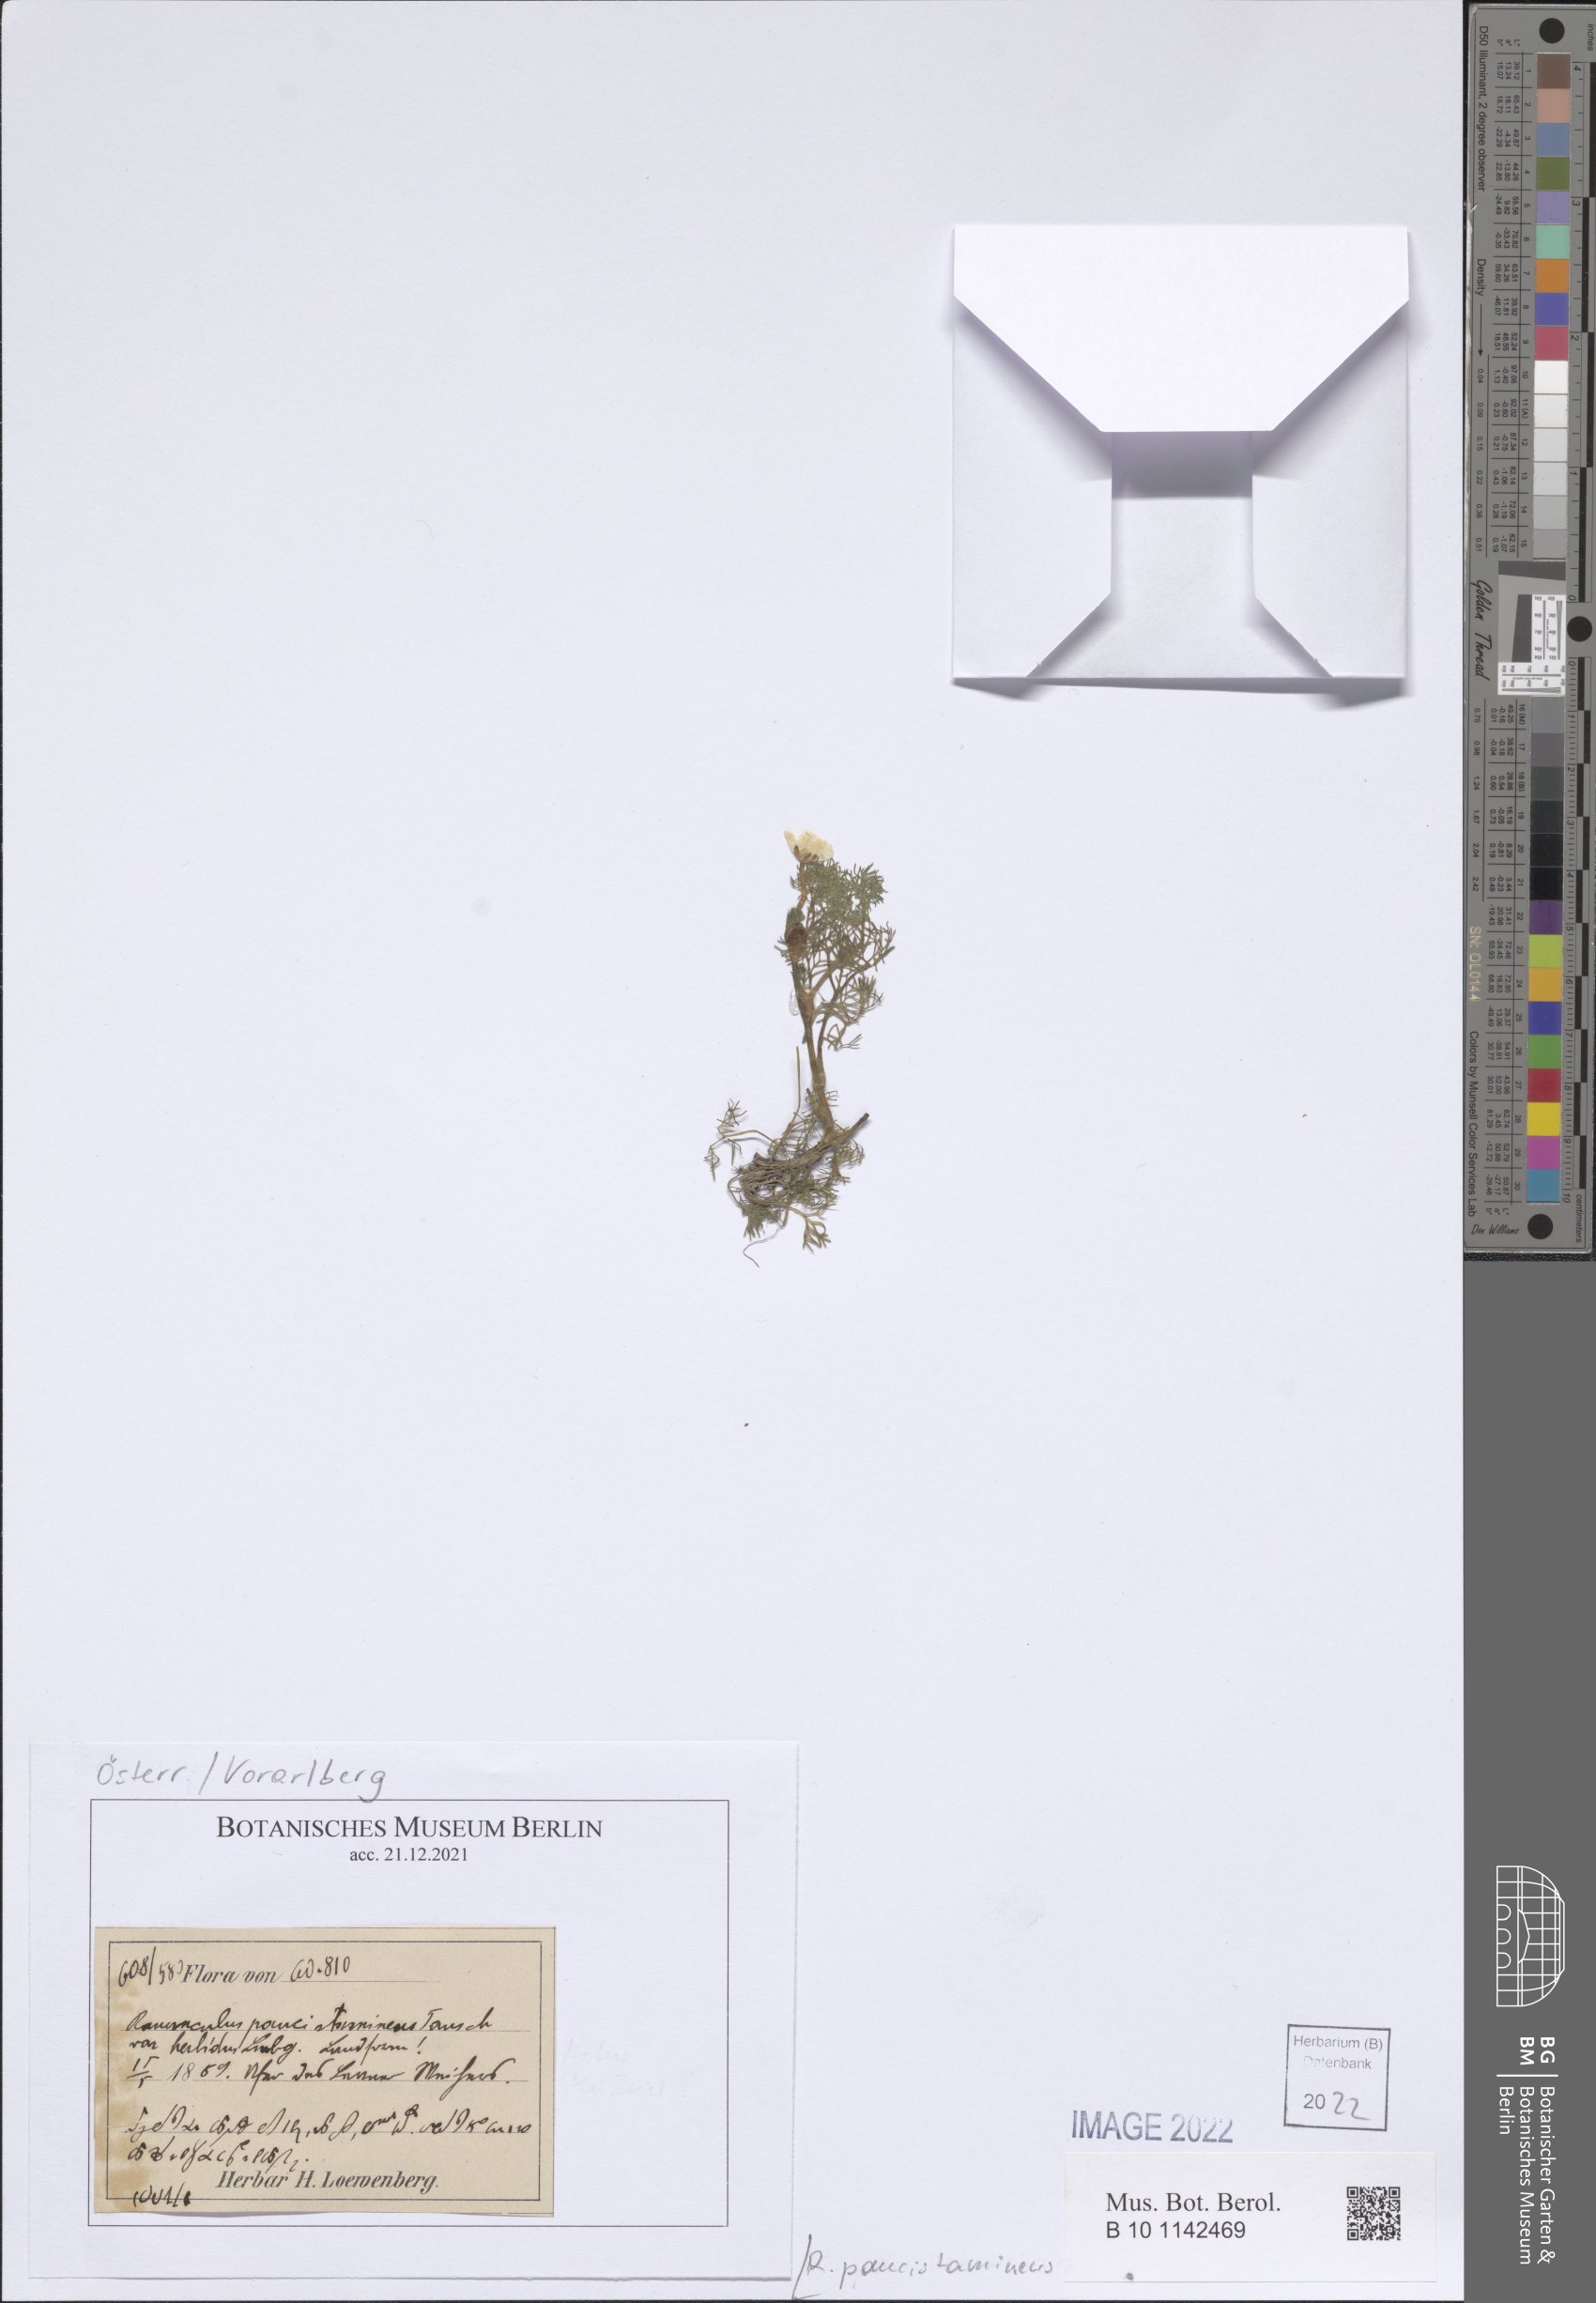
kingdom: Plantae
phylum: Tracheophyta
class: Magnoliopsida
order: Ranunculales
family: Ranunculaceae
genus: Ranunculus
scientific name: Ranunculus trichophyllus
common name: Thread-leaved water-crowfoot
